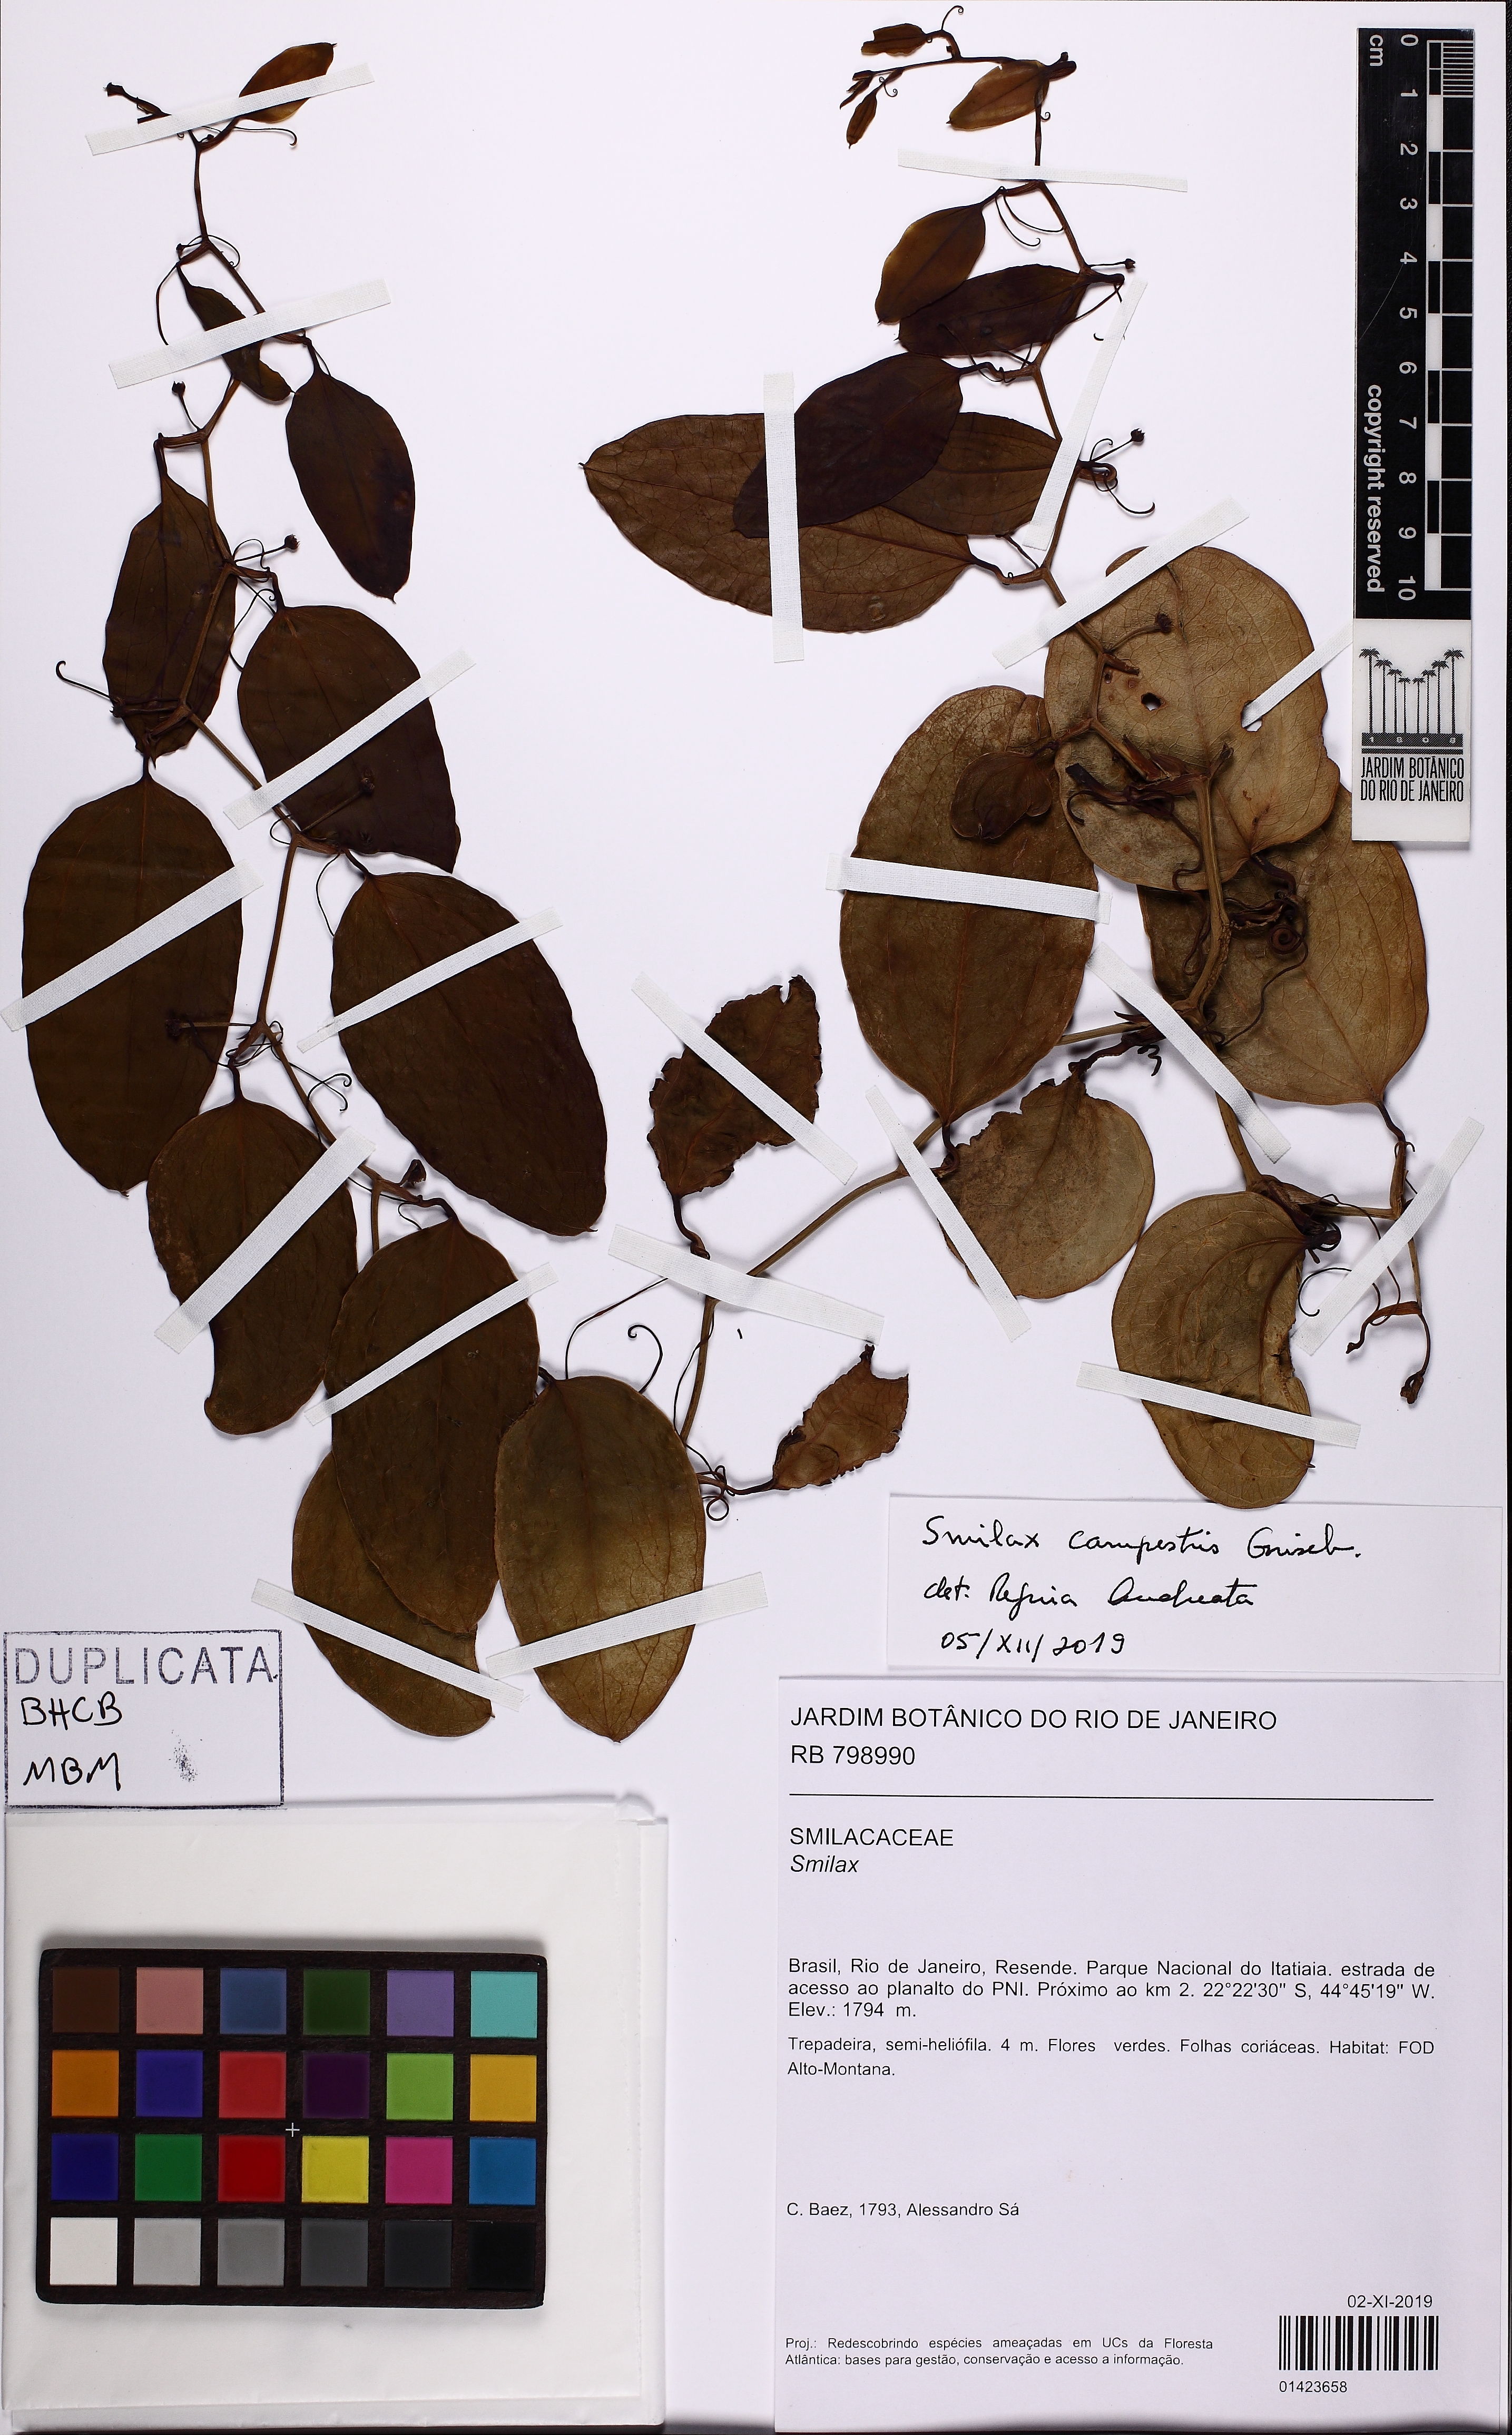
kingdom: Plantae
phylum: Tracheophyta
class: Liliopsida
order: Liliales
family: Smilacaceae
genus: Smilax
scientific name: Smilax campestris
